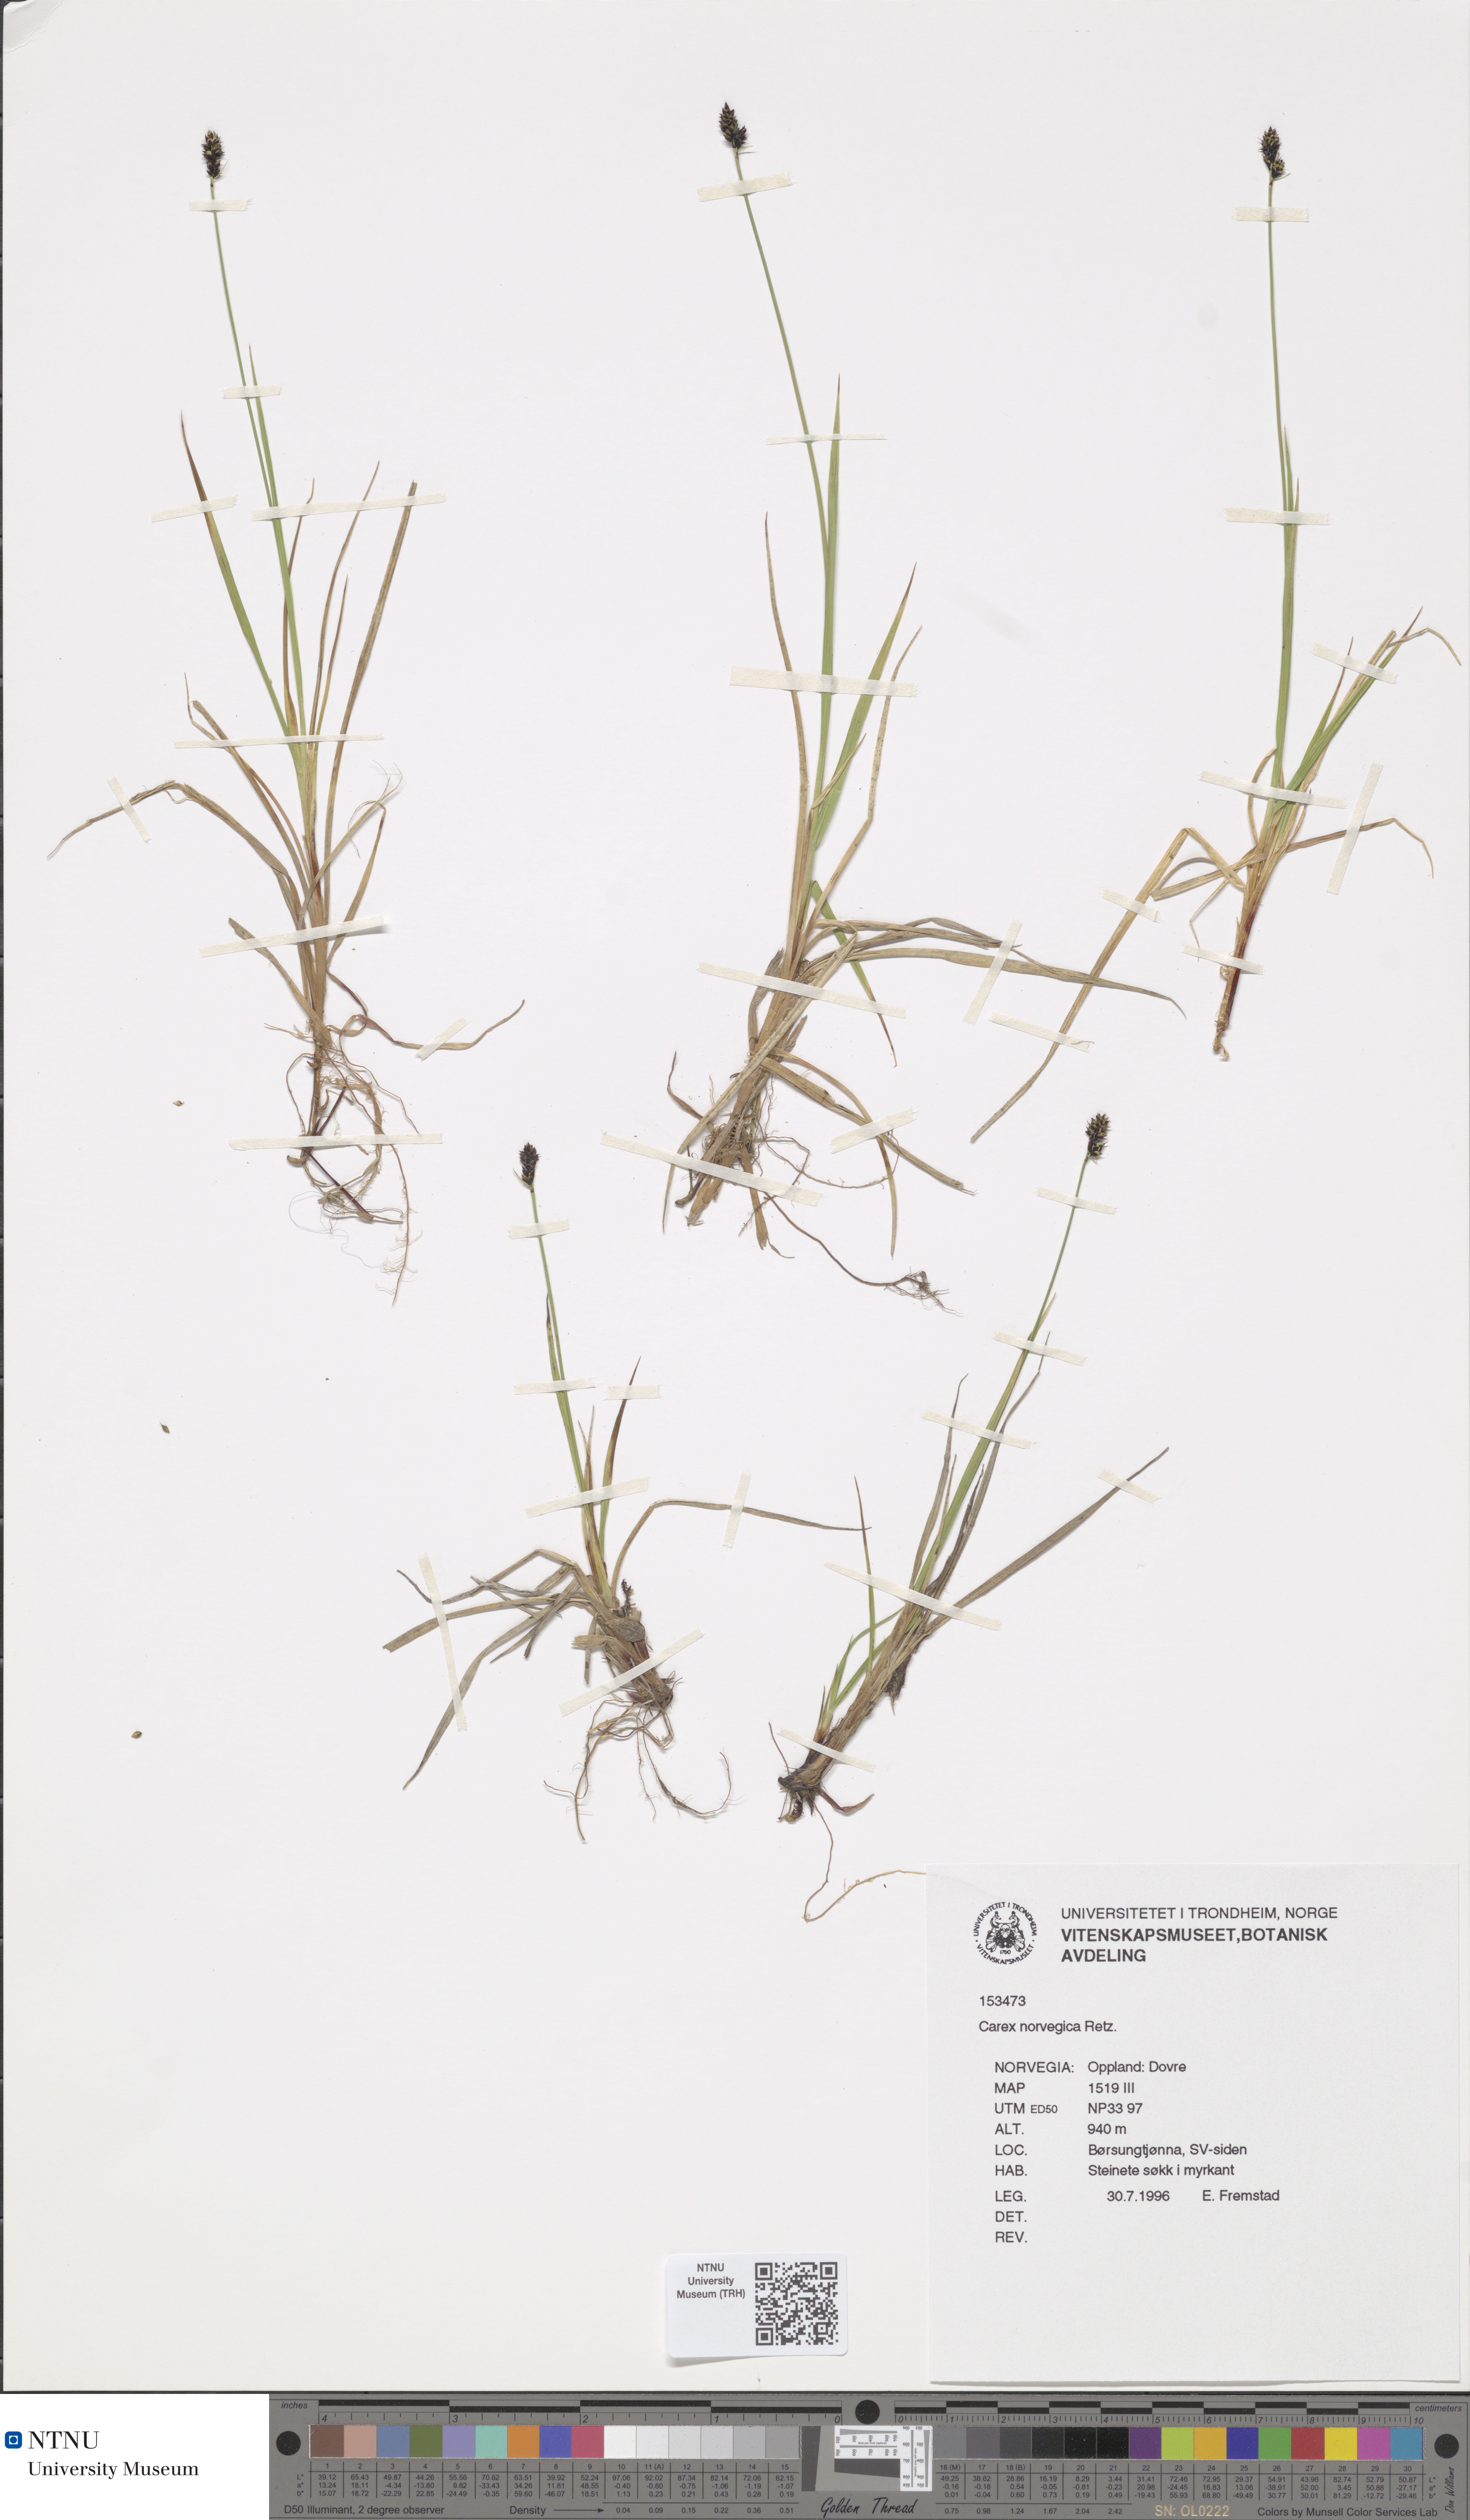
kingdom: Plantae
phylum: Tracheophyta
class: Liliopsida
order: Poales
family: Cyperaceae
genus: Carex
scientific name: Carex norvegica
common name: Close-headed alpine-sedge
